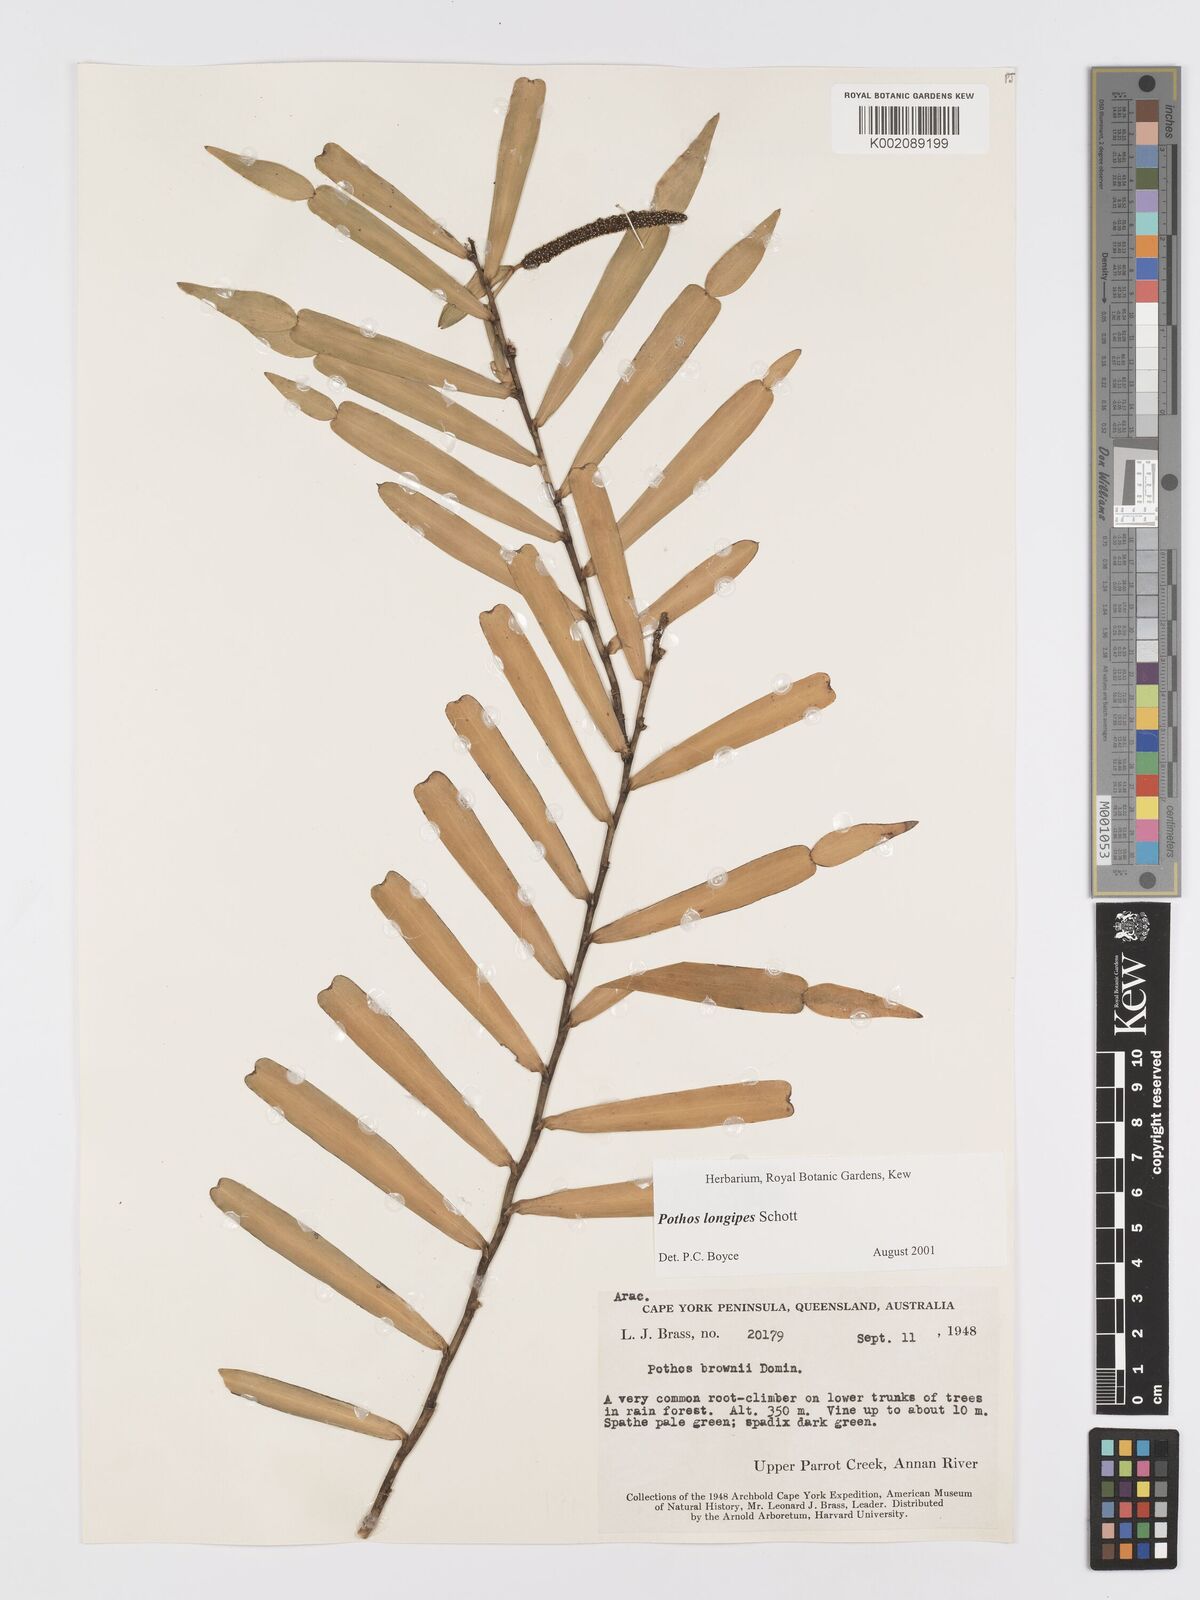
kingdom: Plantae
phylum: Tracheophyta
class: Liliopsida
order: Alismatales
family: Araceae
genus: Pothos
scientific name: Pothos longipes
